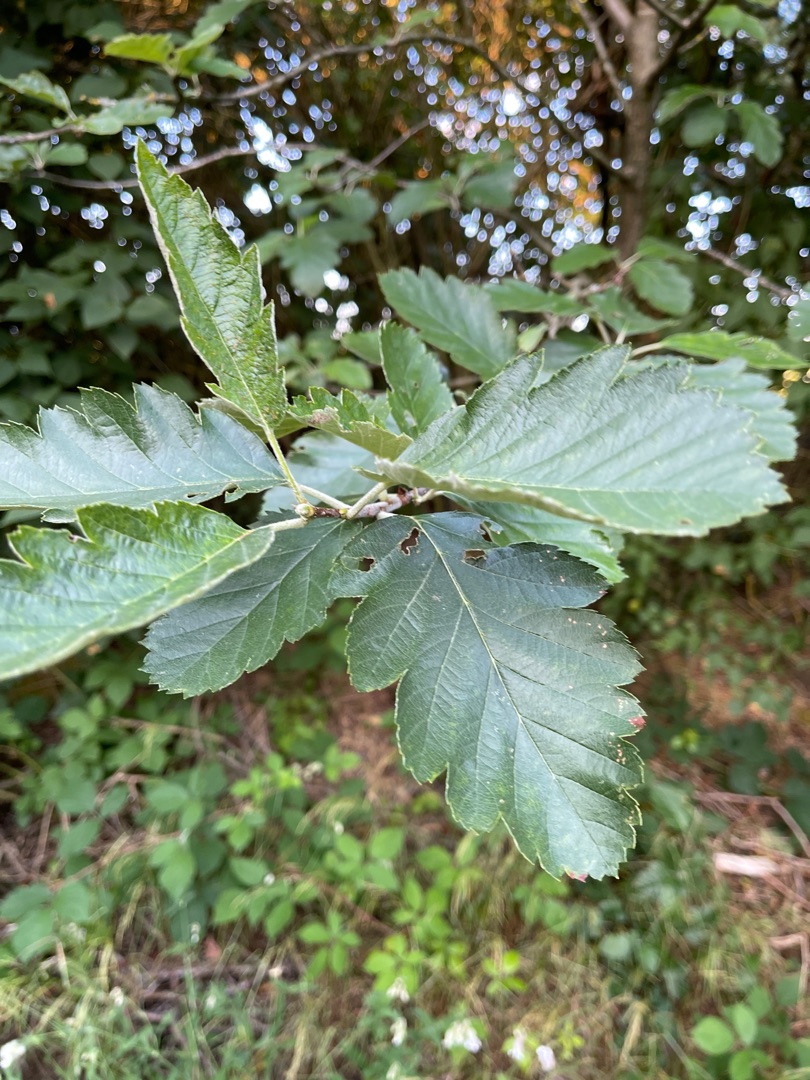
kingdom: Plantae
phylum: Tracheophyta
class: Magnoliopsida
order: Rosales
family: Rosaceae
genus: Scandosorbus
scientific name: Scandosorbus intermedia
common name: Selje-røn
